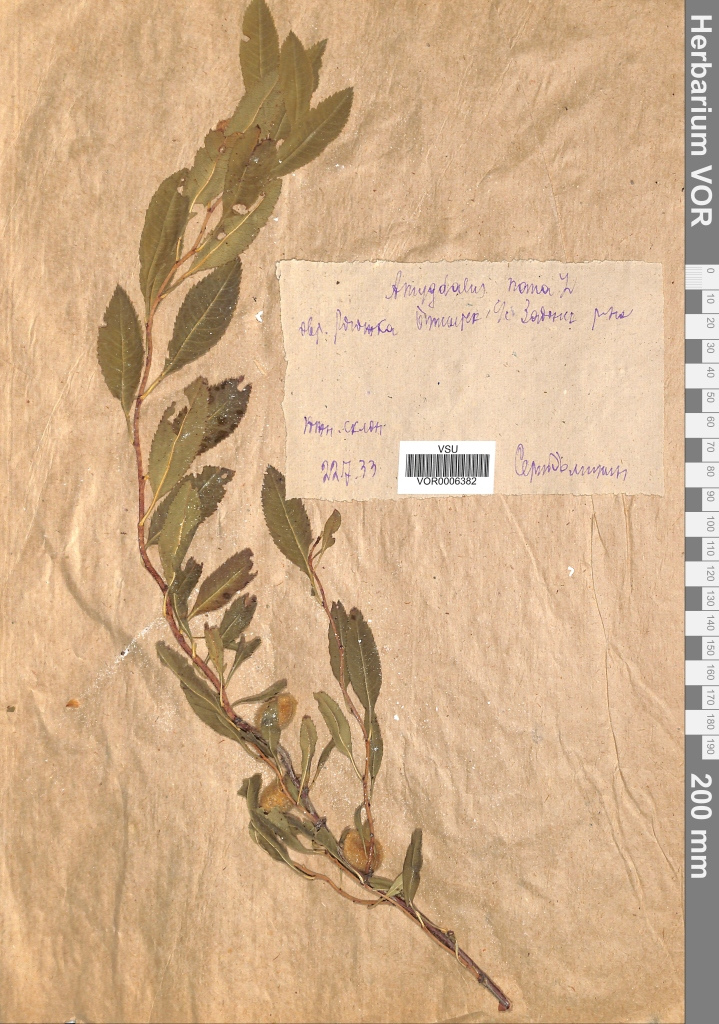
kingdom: Plantae
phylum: Tracheophyta
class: Magnoliopsida
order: Rosales
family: Rosaceae
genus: Prunus
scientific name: Prunus tenella
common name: Dwarf russian almond
